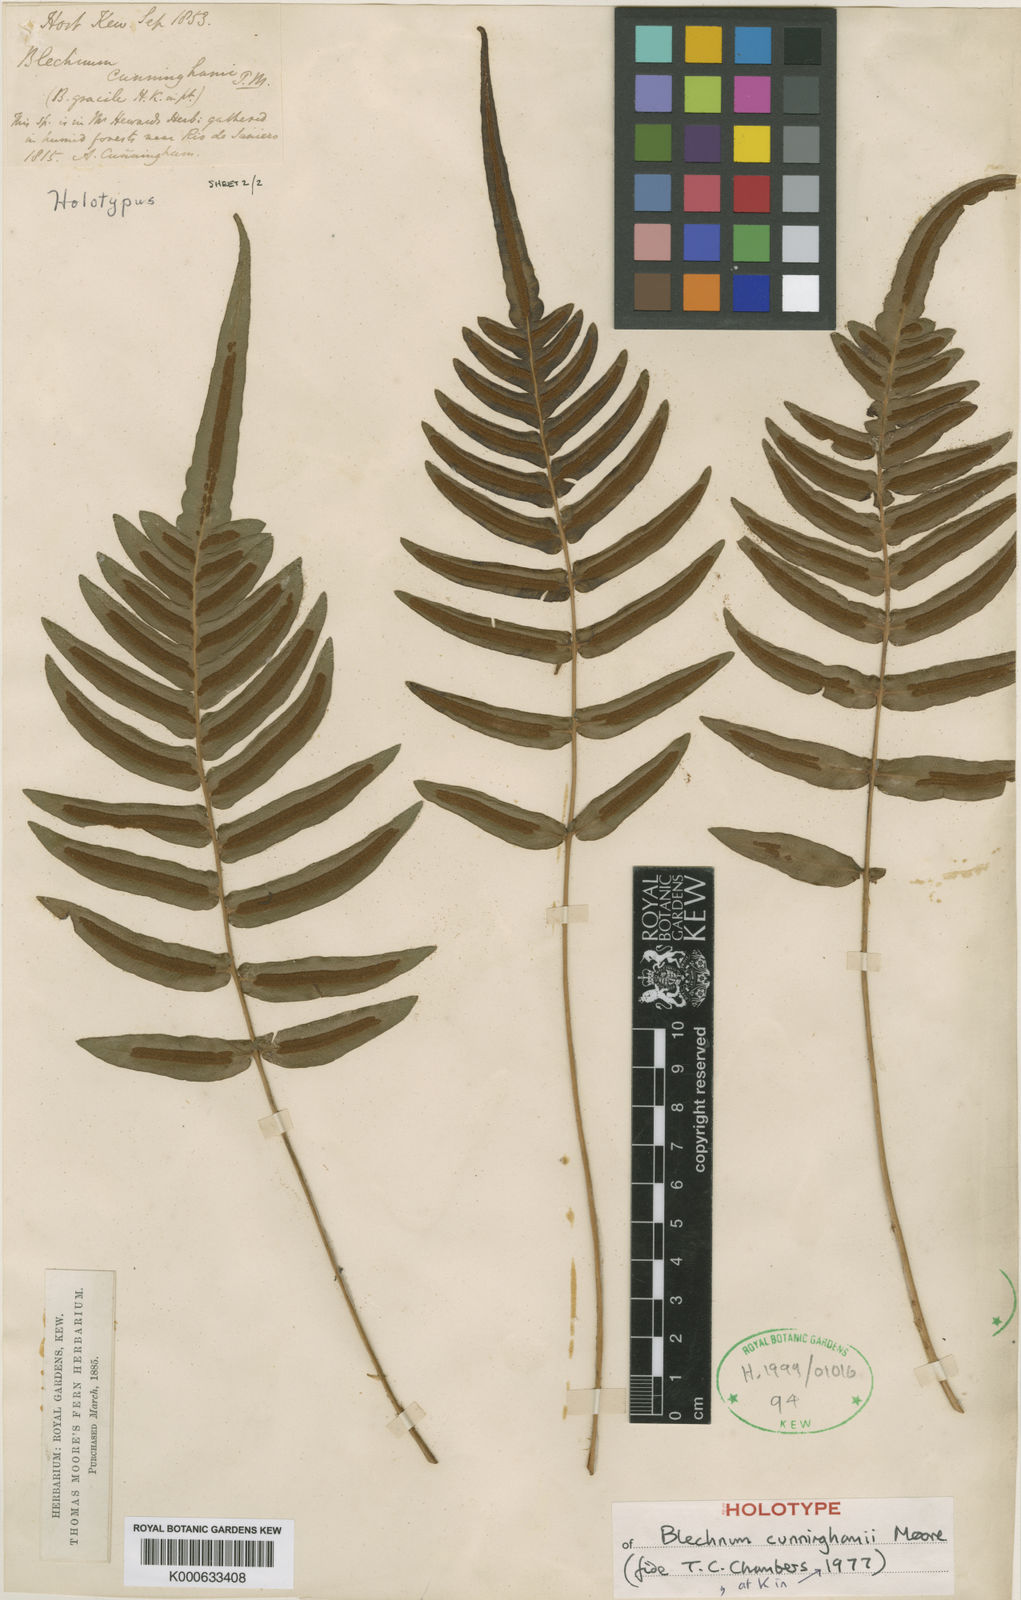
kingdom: Plantae
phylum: Tracheophyta
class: Polypodiopsida
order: Polypodiales
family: Blechnaceae
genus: Blechnum
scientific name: Blechnum occidentale
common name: Hammock fern
